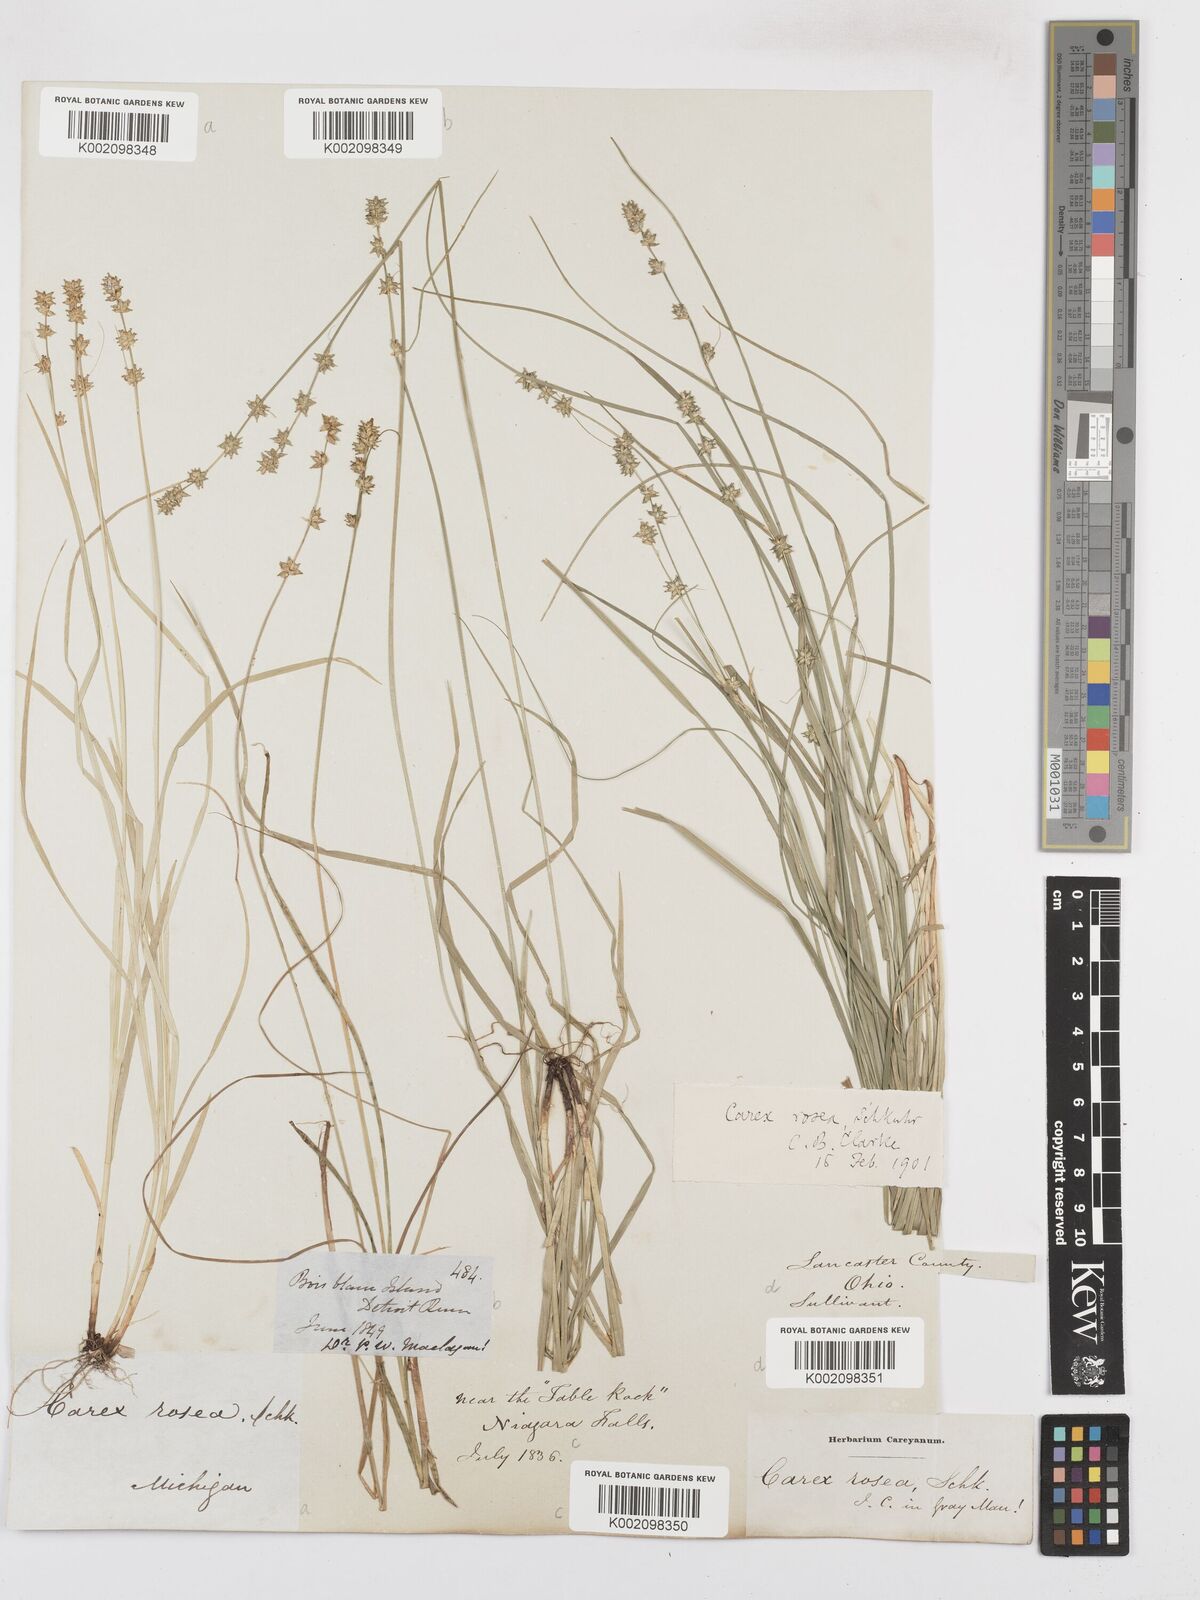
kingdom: Plantae
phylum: Tracheophyta
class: Liliopsida
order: Poales
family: Cyperaceae
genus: Carex
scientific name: Carex rosea
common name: Curly-styled wood sedge
